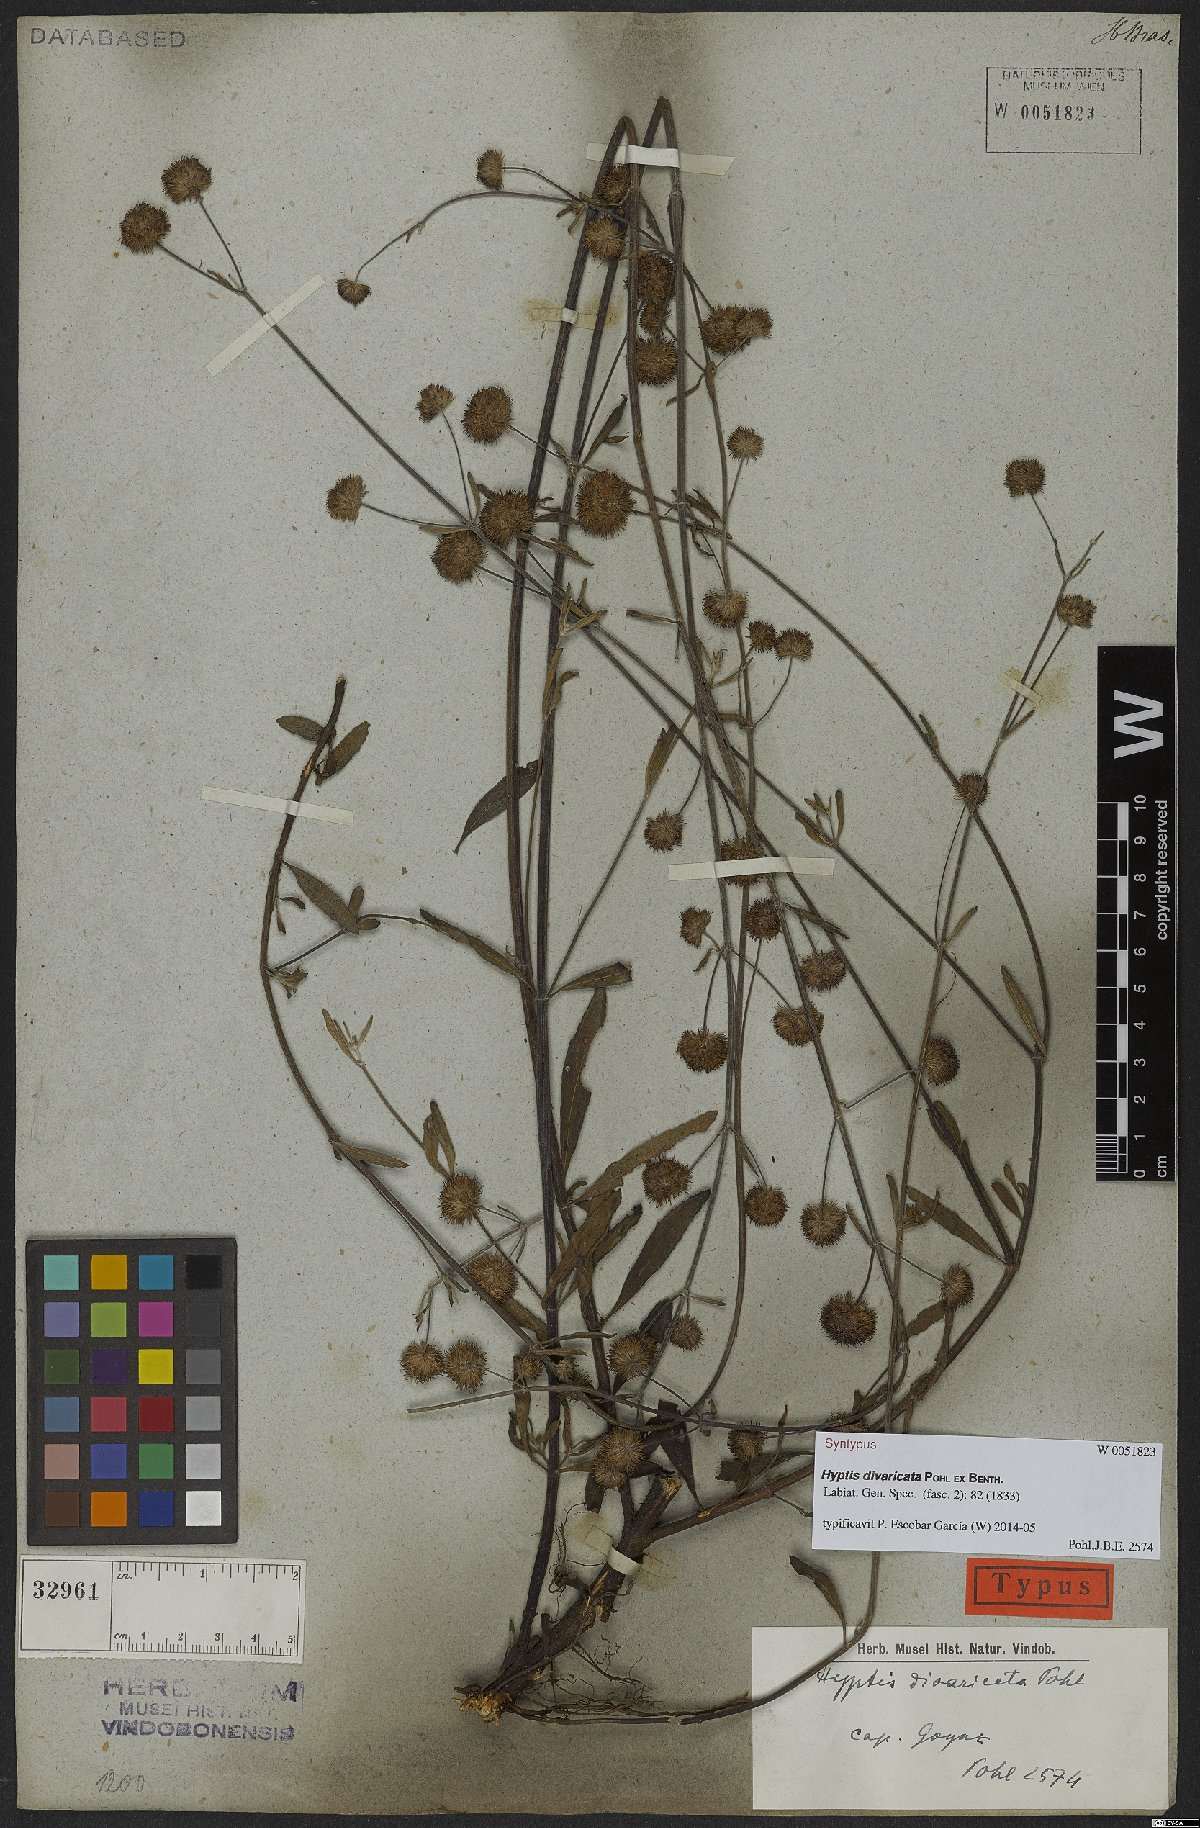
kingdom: Plantae
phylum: Tracheophyta
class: Magnoliopsida
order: Lamiales
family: Lamiaceae
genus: Hyptis
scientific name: Hyptis divaricata
